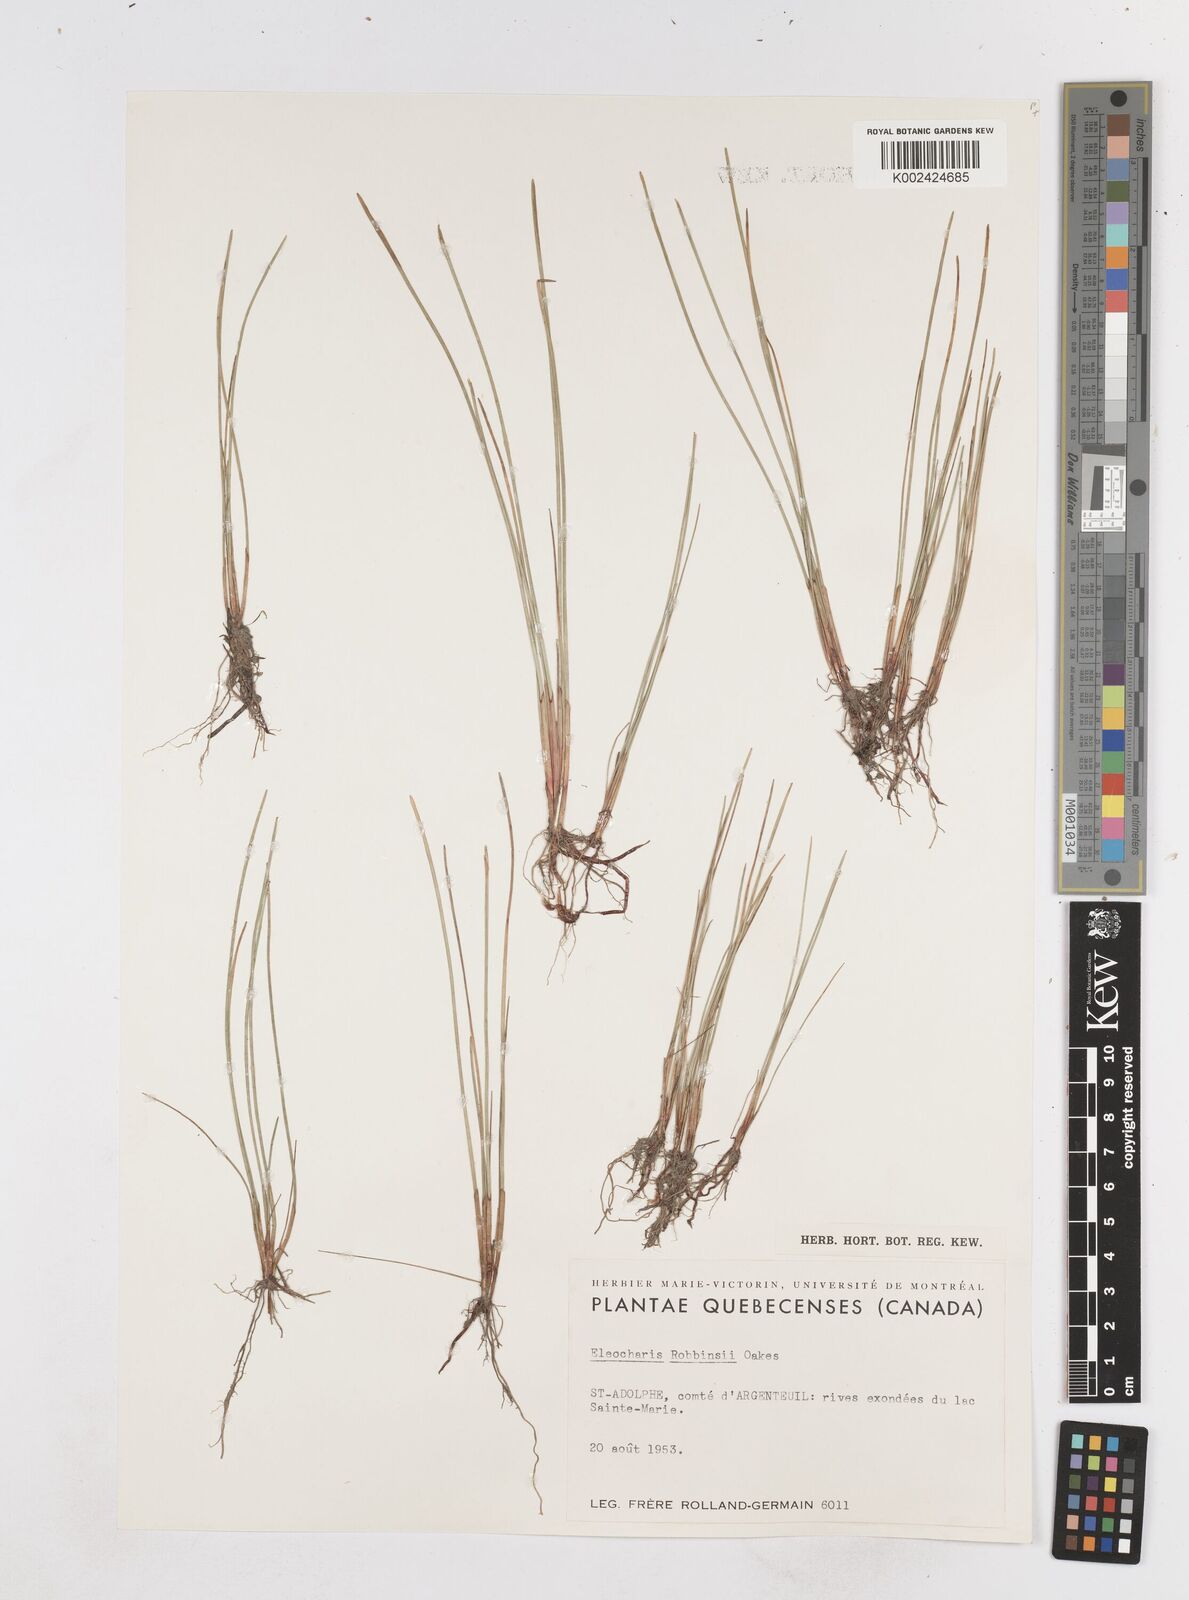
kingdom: Plantae
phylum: Tracheophyta
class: Liliopsida
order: Poales
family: Cyperaceae
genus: Eleocharis
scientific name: Eleocharis robbinsii
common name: Robbins' spikerush
